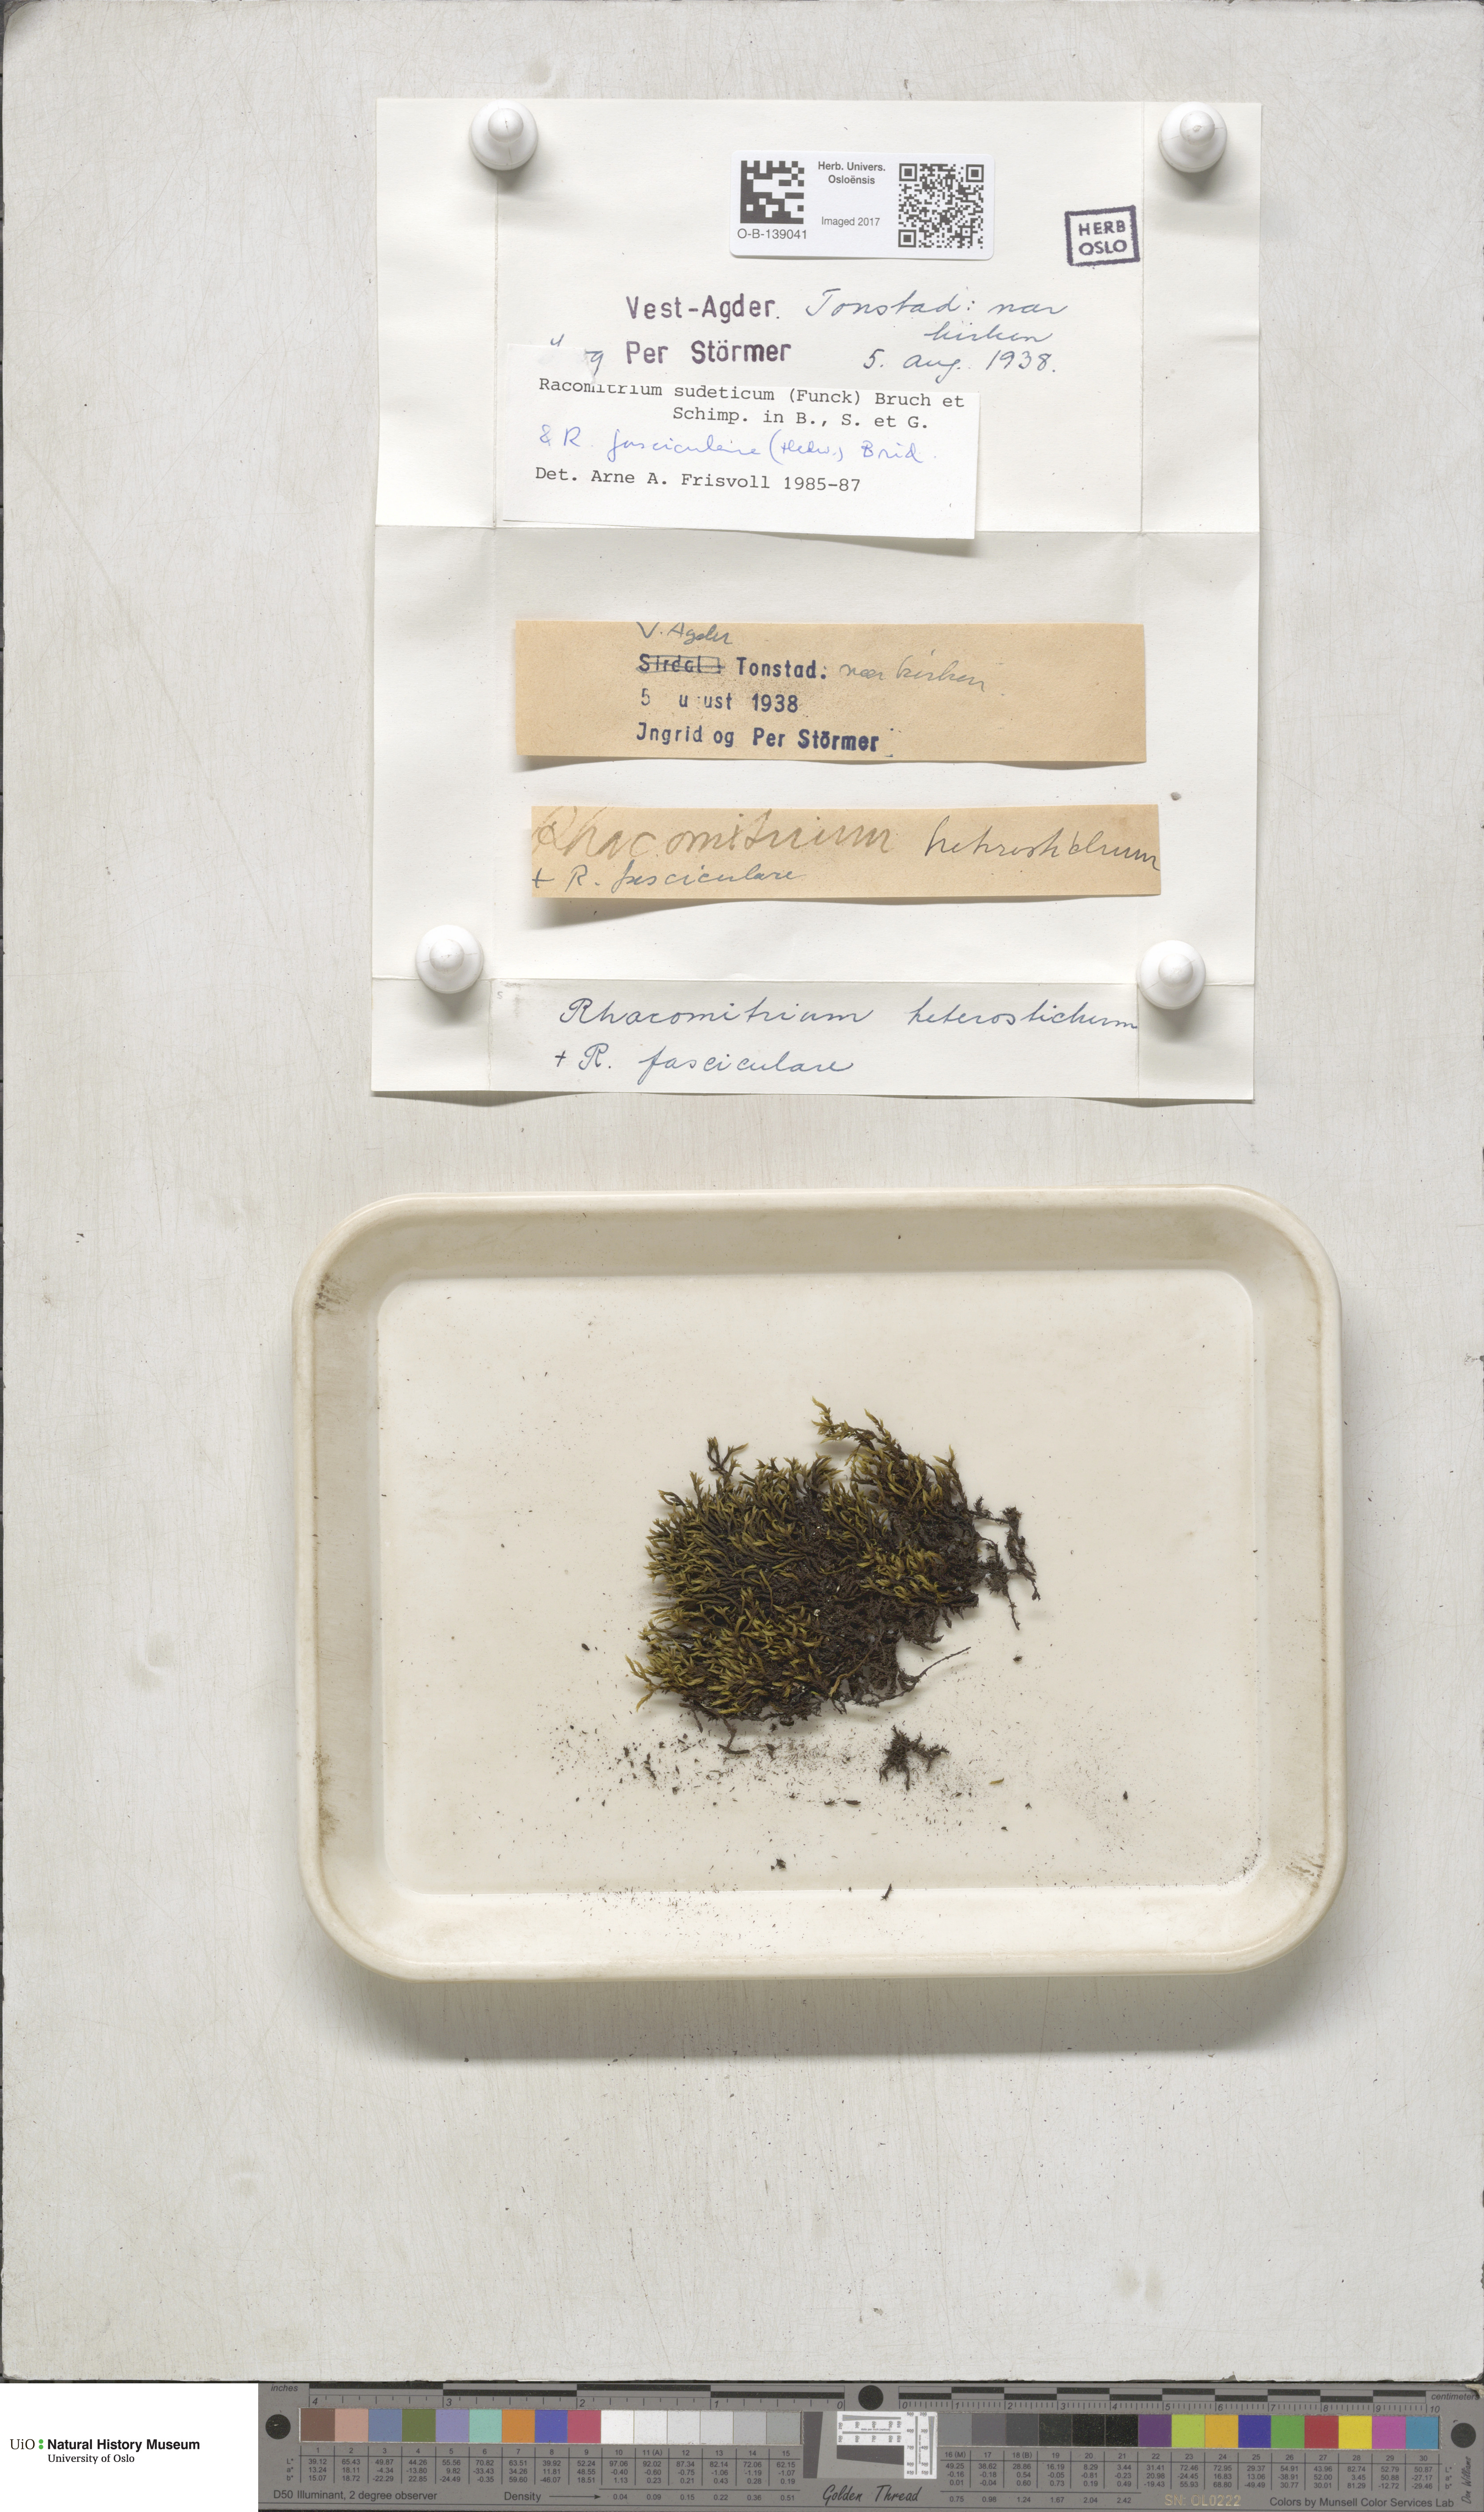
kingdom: Plantae
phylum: Bryophyta
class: Bryopsida
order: Grimmiales
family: Grimmiaceae
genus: Bucklandiella
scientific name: Bucklandiella sudetica
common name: Slender fringe-moss
